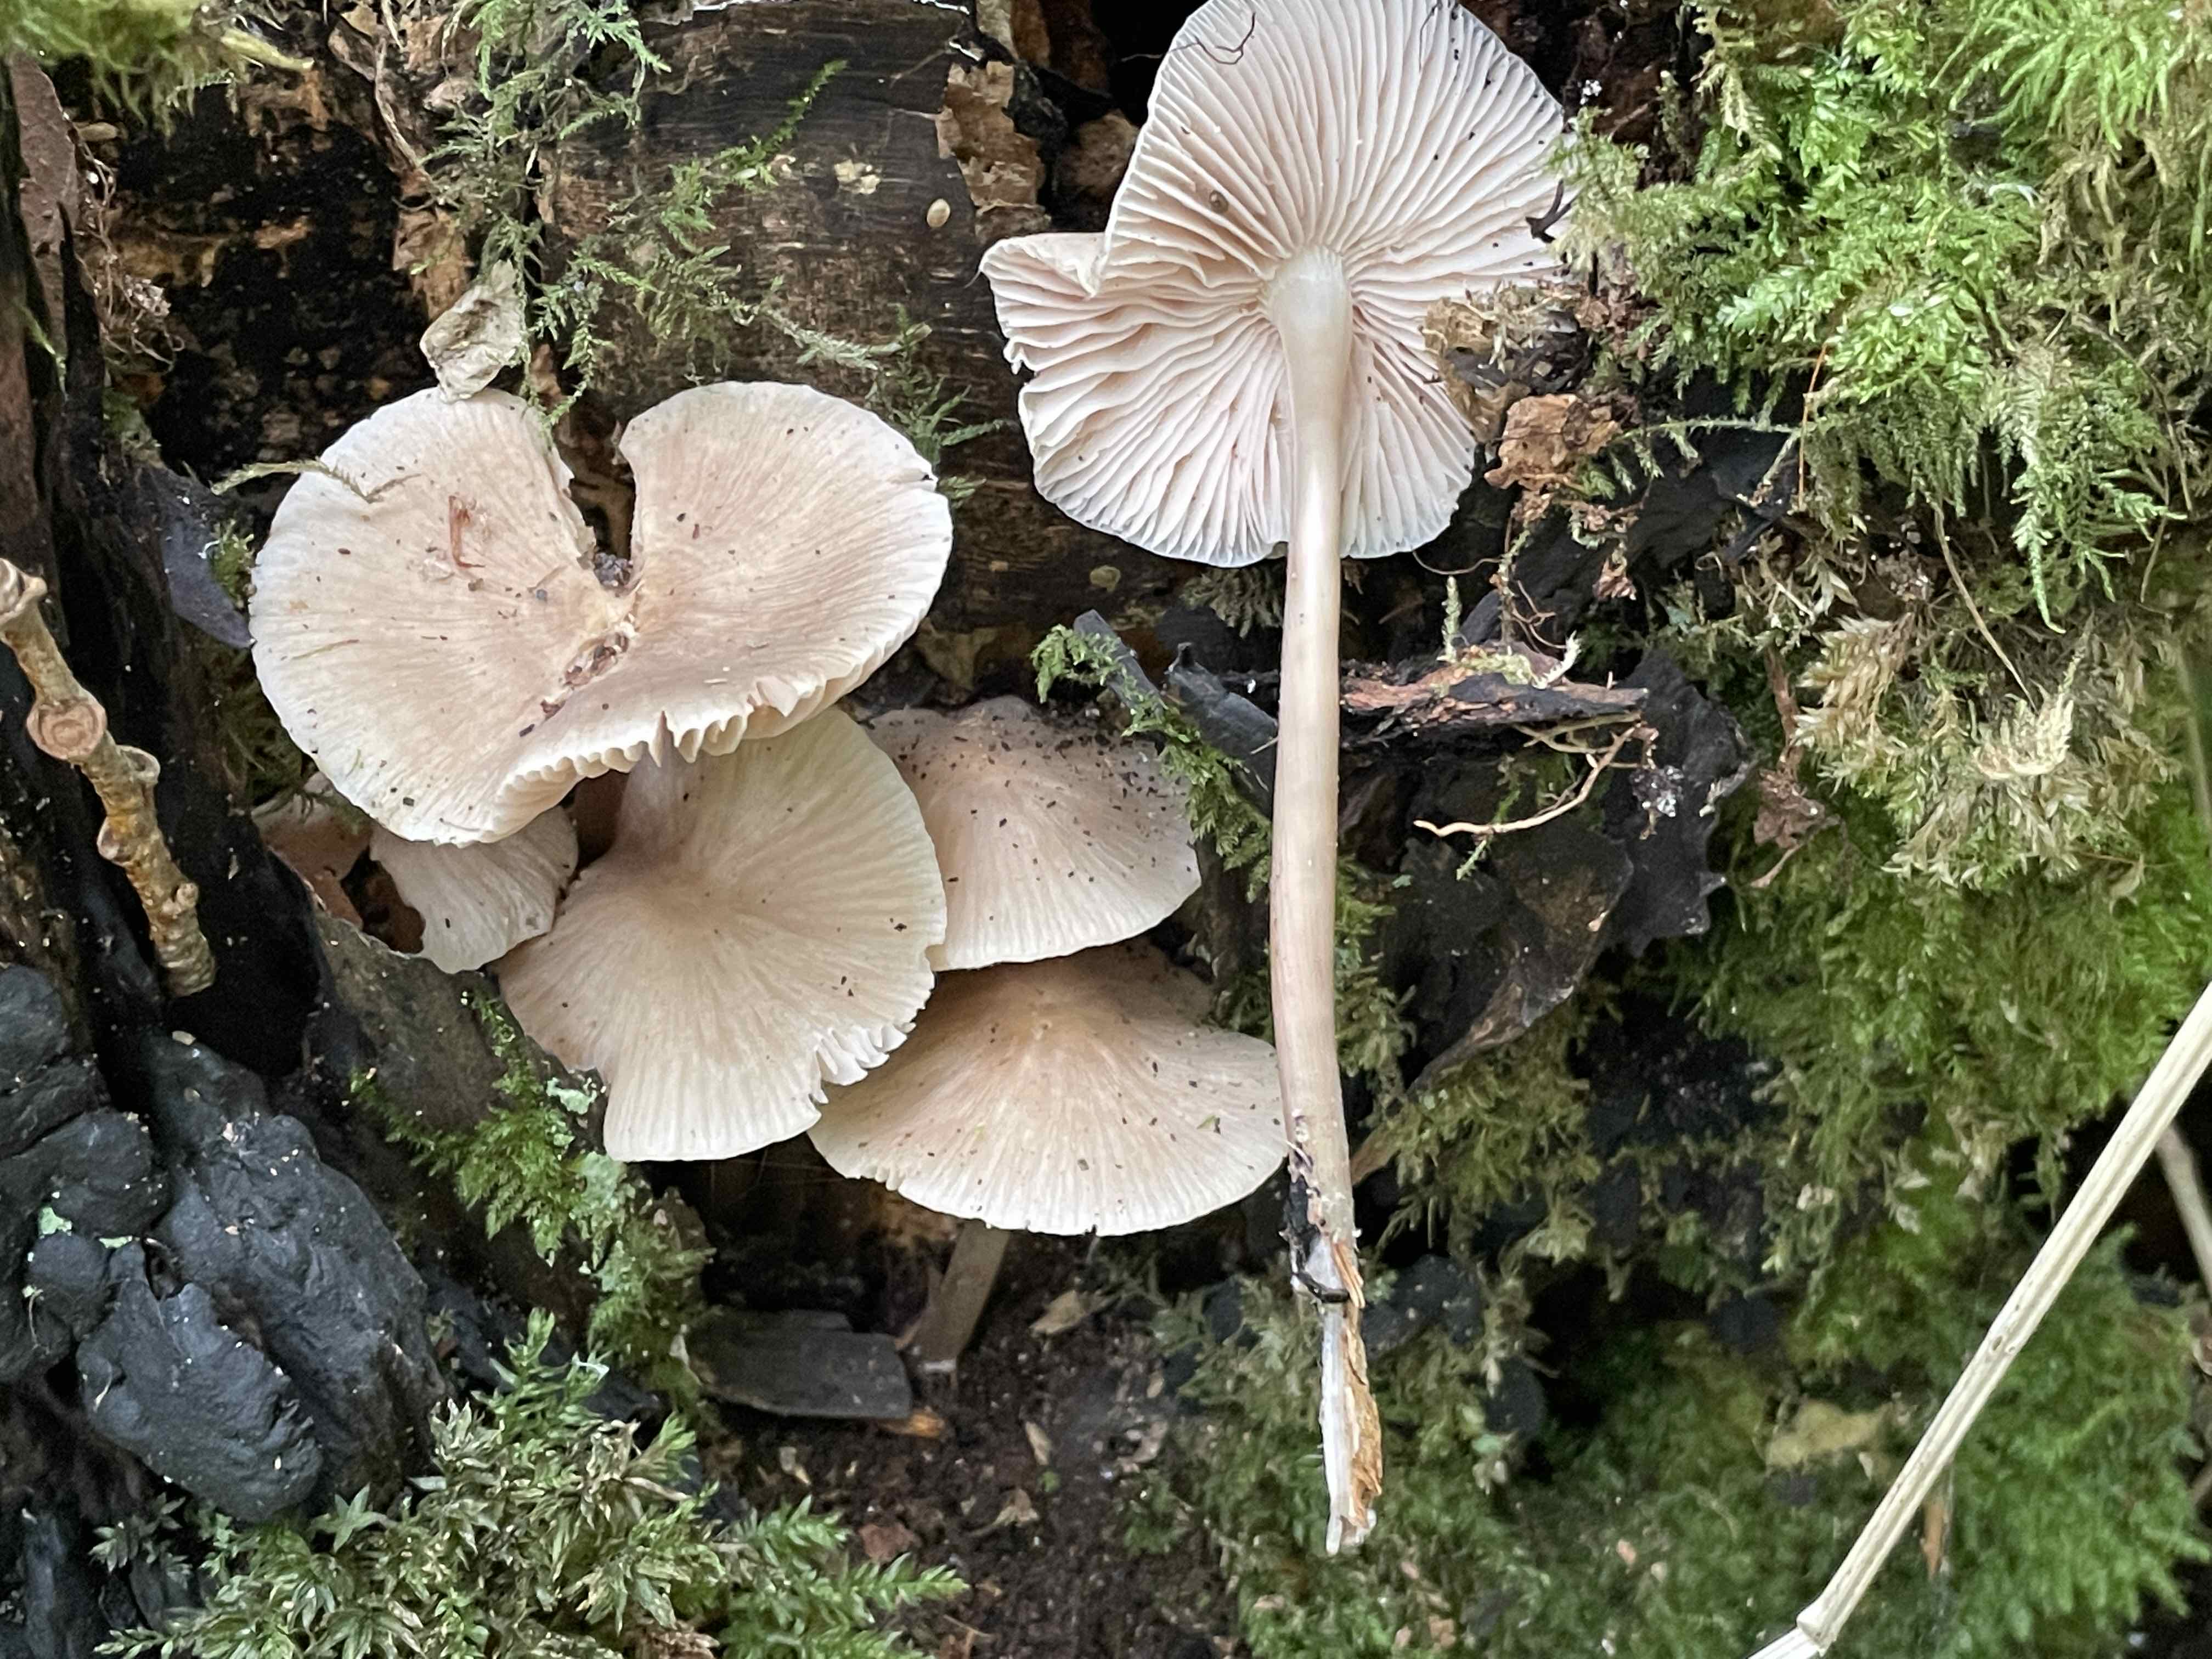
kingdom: Fungi
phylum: Basidiomycota
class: Agaricomycetes
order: Agaricales
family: Mycenaceae
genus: Mycena
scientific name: Mycena galericulata
